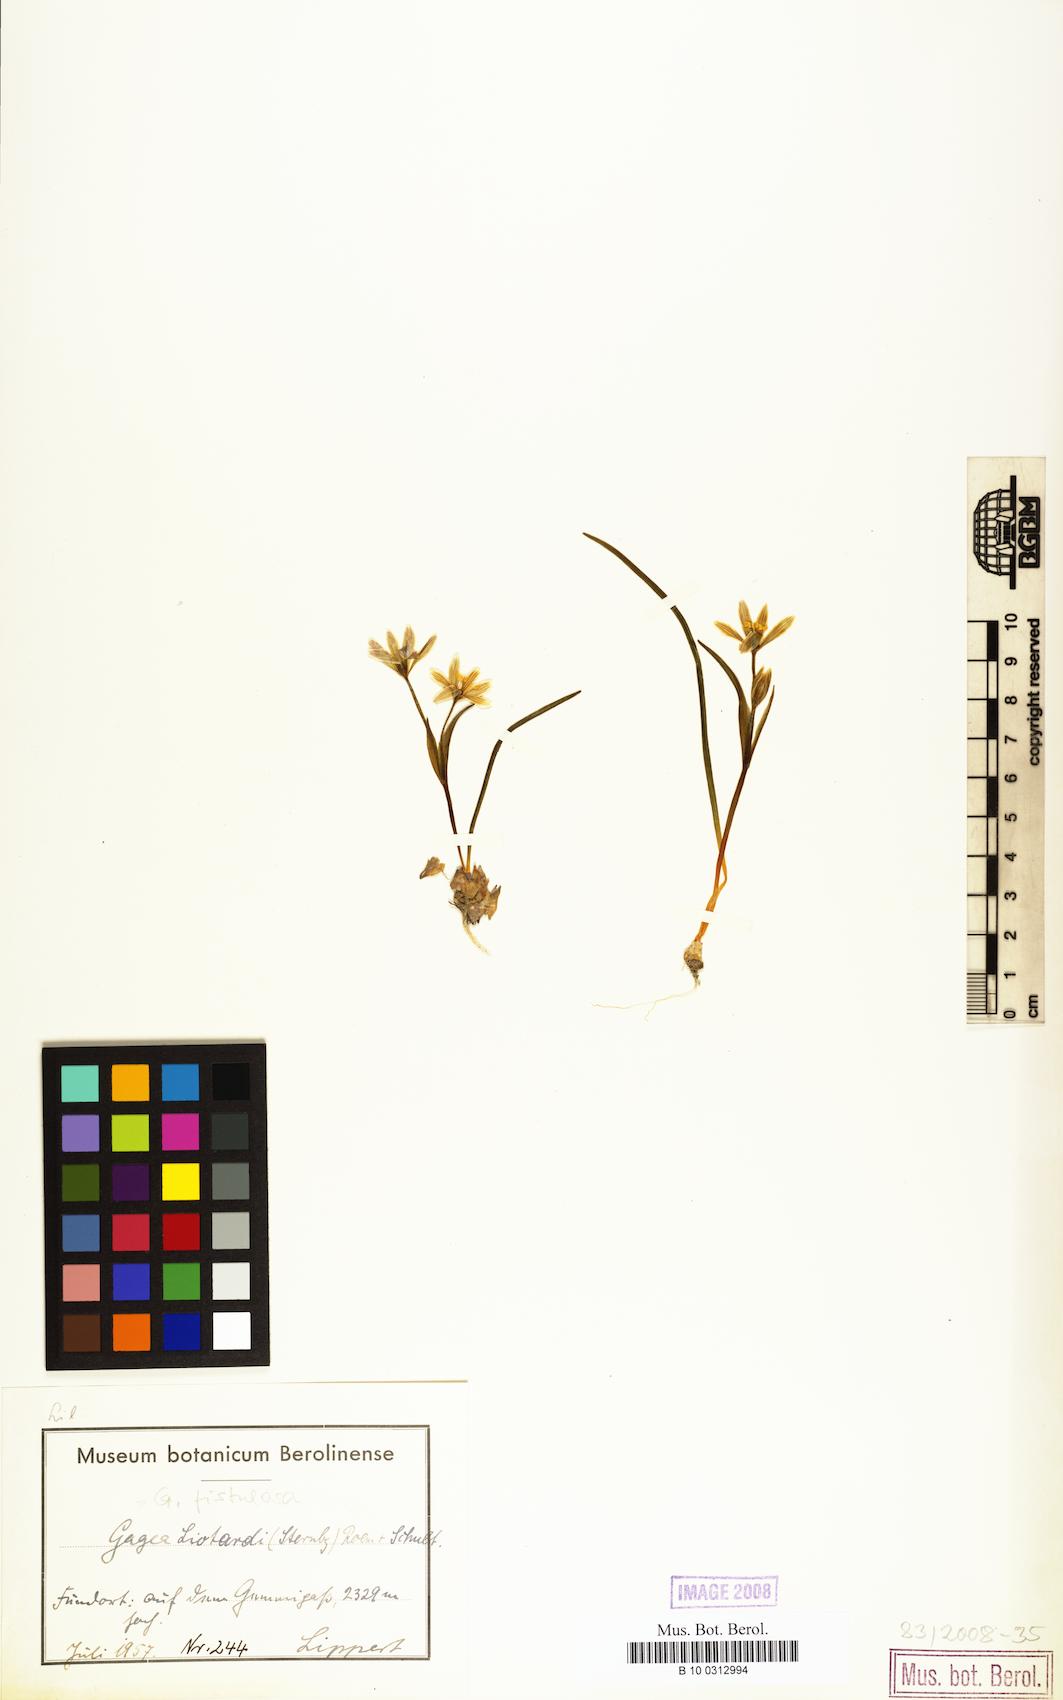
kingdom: Plantae
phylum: Tracheophyta
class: Liliopsida
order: Liliales
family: Liliaceae
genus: Gagea
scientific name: Gagea
